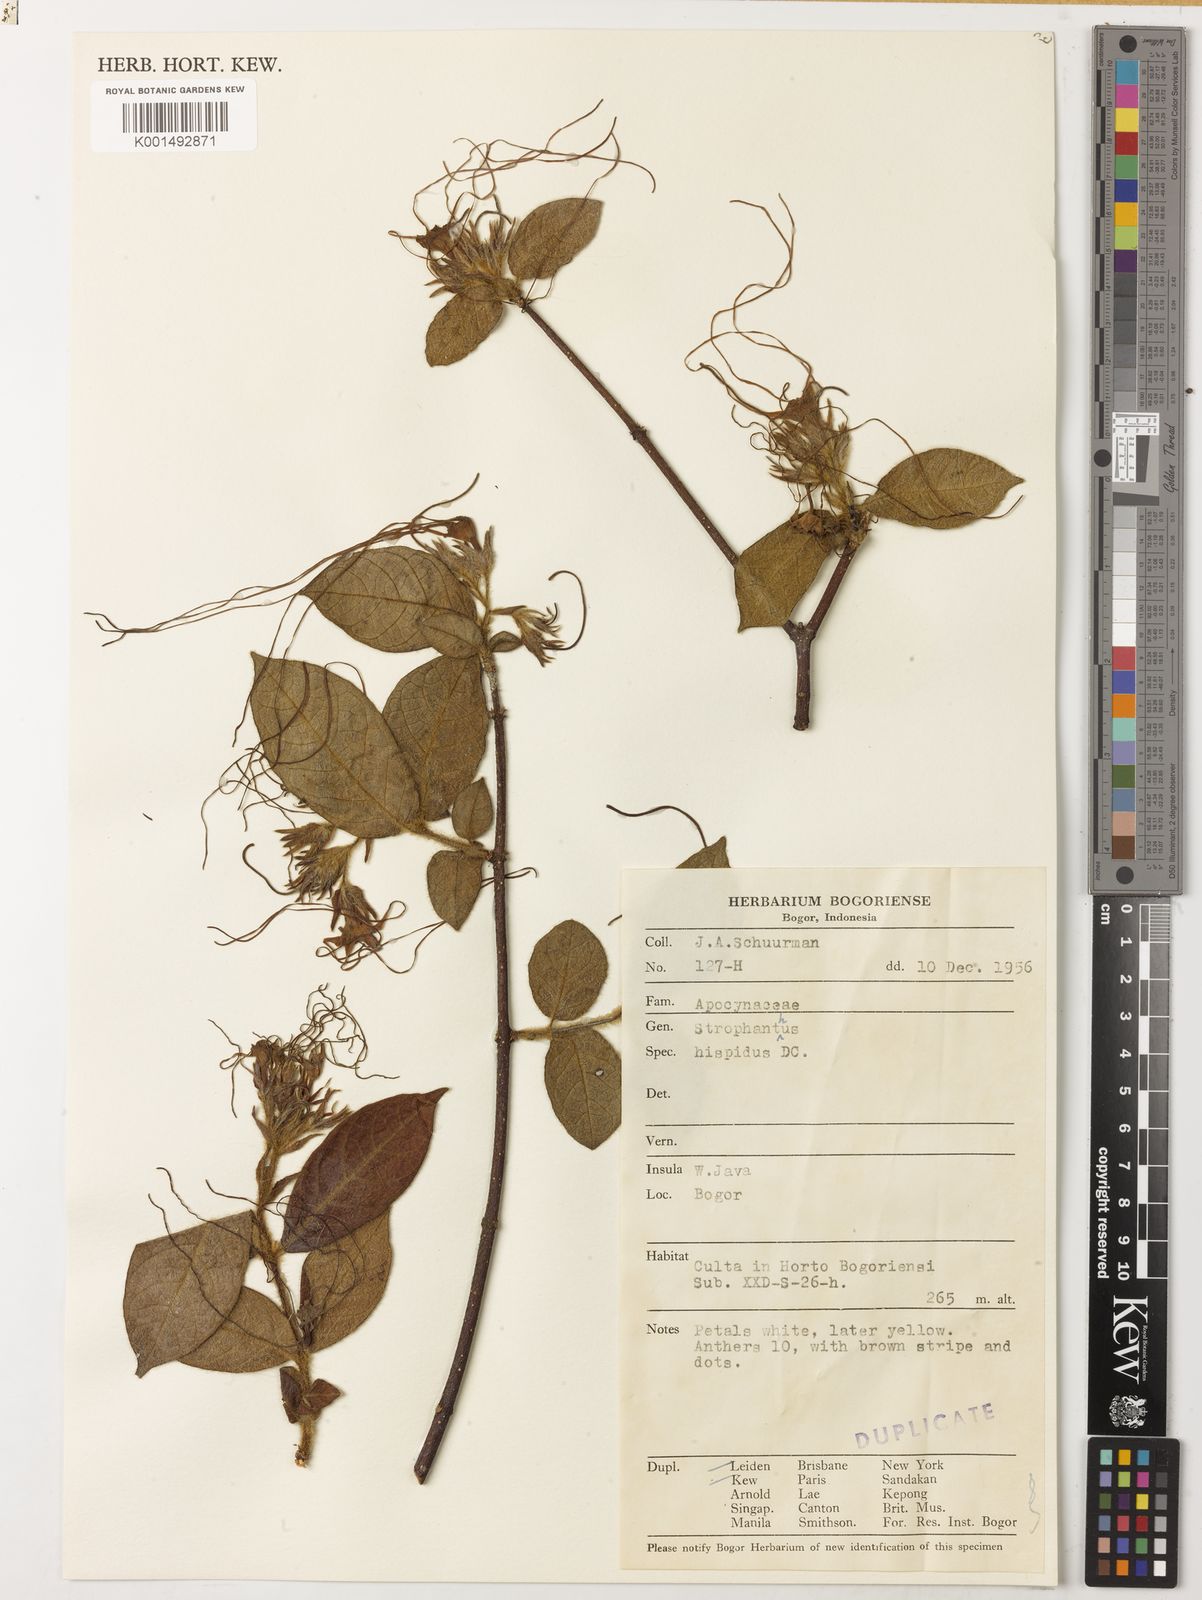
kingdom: Plantae
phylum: Tracheophyta
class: Magnoliopsida
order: Gentianales
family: Apocynaceae
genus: Strophanthus
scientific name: Strophanthus hispidus
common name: Hairy strophanthus
